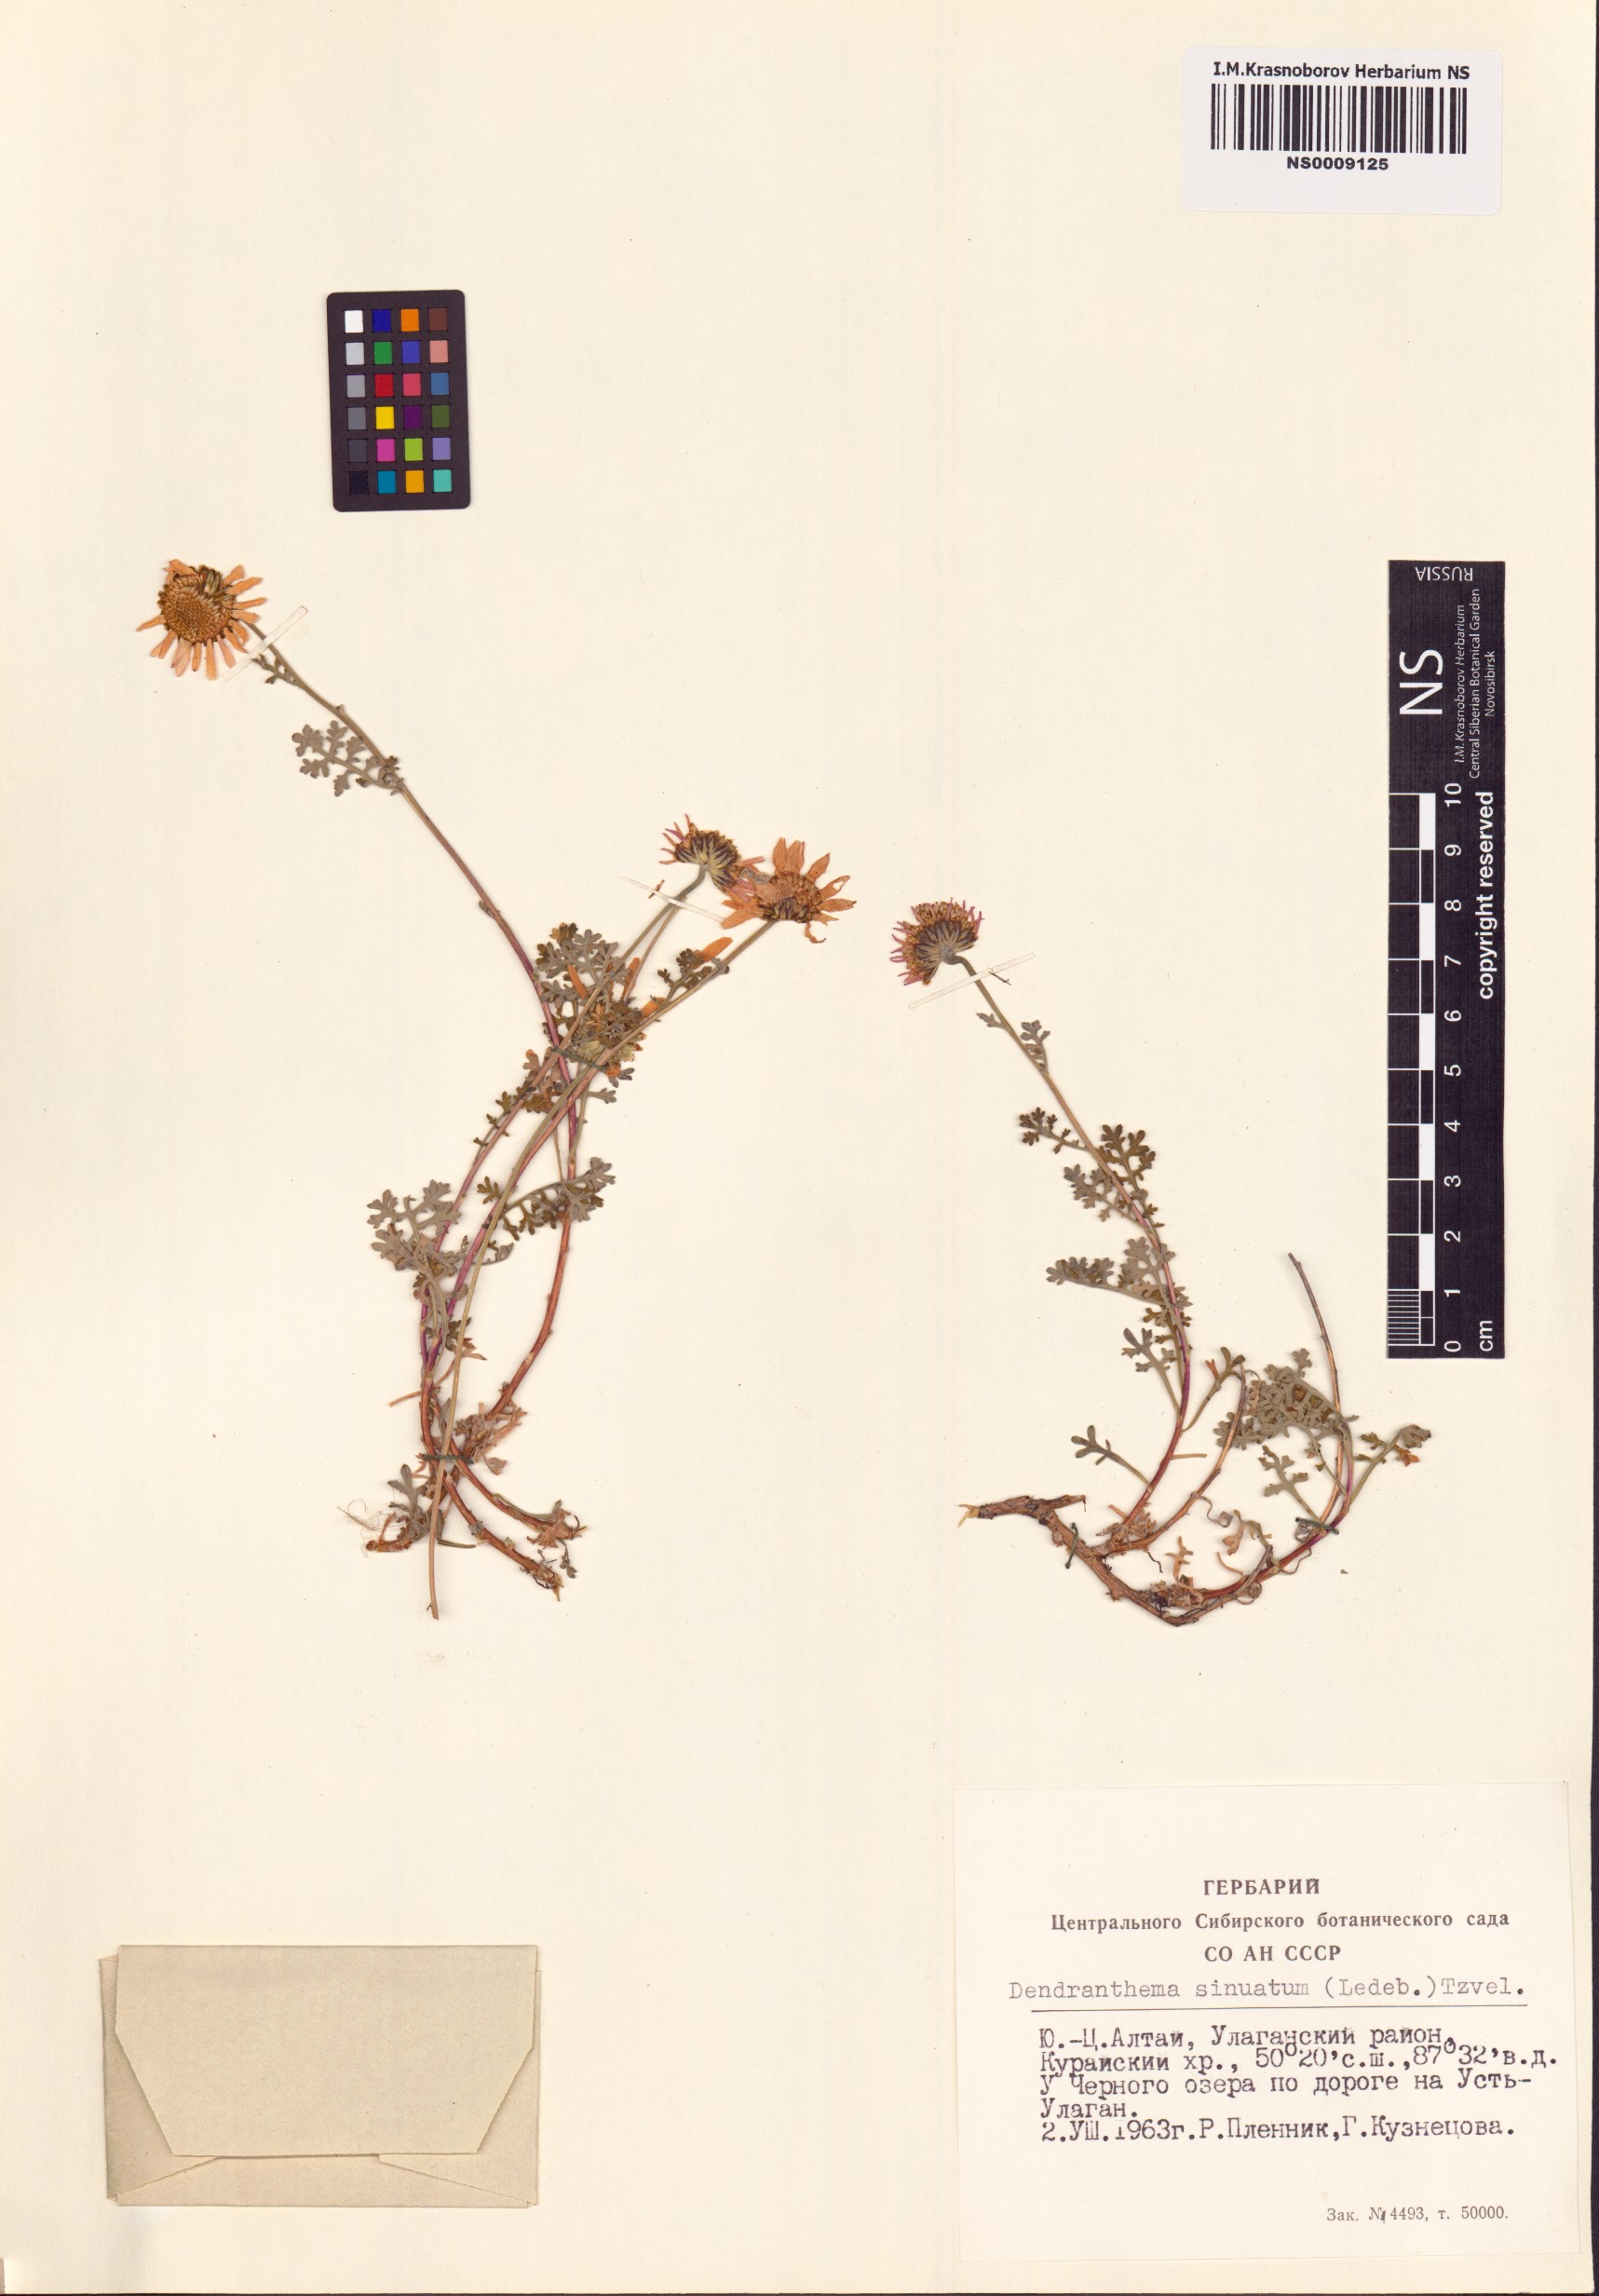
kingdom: Plantae
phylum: Tracheophyta
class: Magnoliopsida
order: Asterales
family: Asteraceae
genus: Chrysanthemum
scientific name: Chrysanthemum sinuatum
